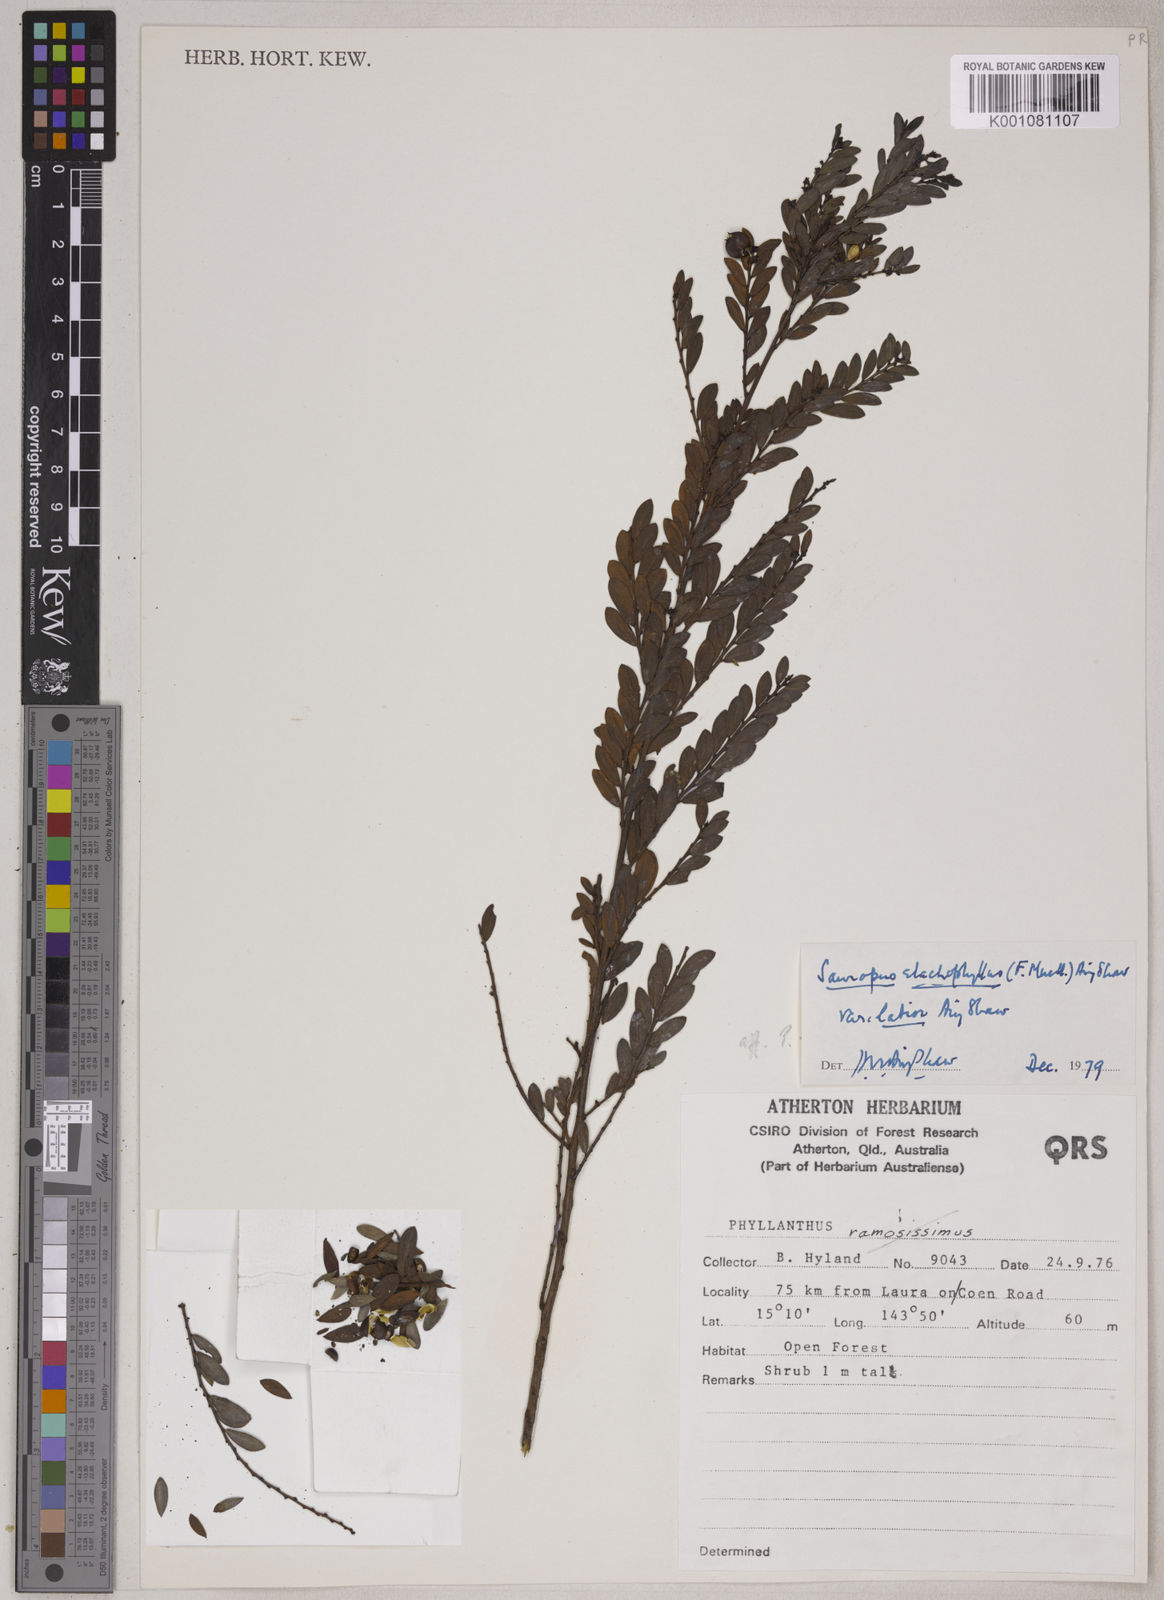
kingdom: Plantae
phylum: Tracheophyta
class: Magnoliopsida
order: Malpighiales
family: Phyllanthaceae
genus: Synostemon
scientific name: Synostemon elachophyllus
